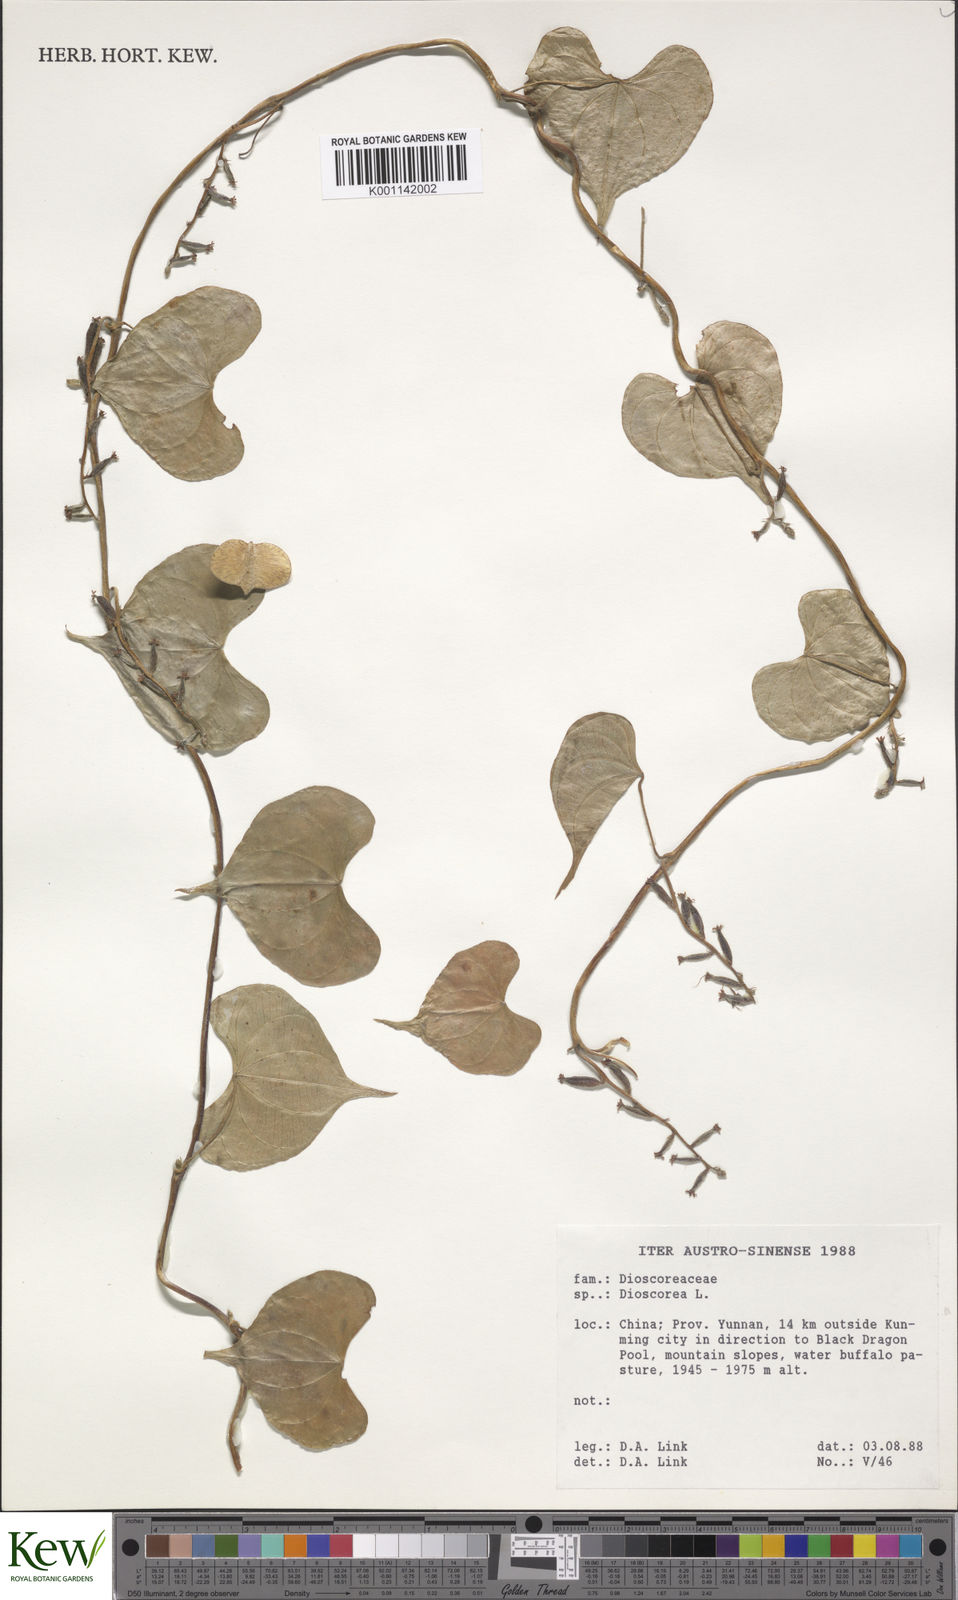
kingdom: Plantae
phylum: Tracheophyta
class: Liliopsida
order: Dioscoreales
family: Dioscoreaceae
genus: Dioscorea
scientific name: Dioscorea
